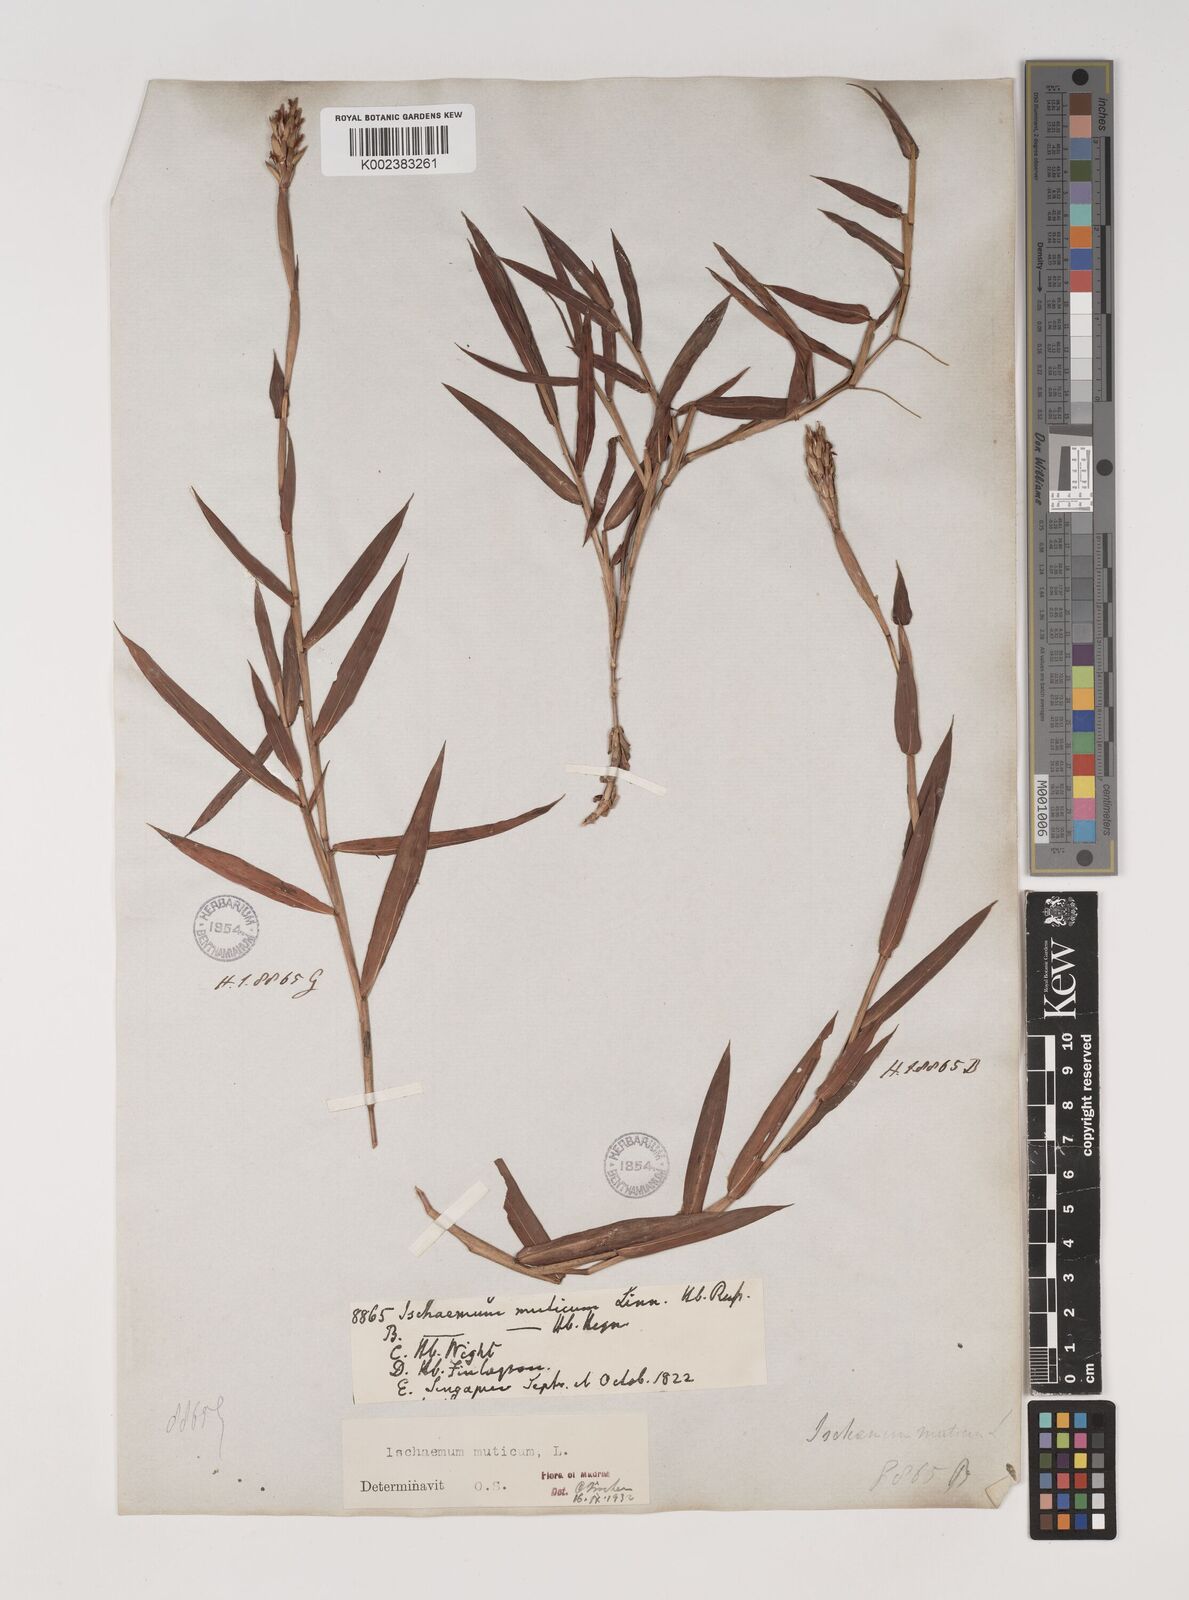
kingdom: Plantae
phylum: Tracheophyta
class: Liliopsida
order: Poales
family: Poaceae
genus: Ischaemum
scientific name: Ischaemum muticum
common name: Drought grass
